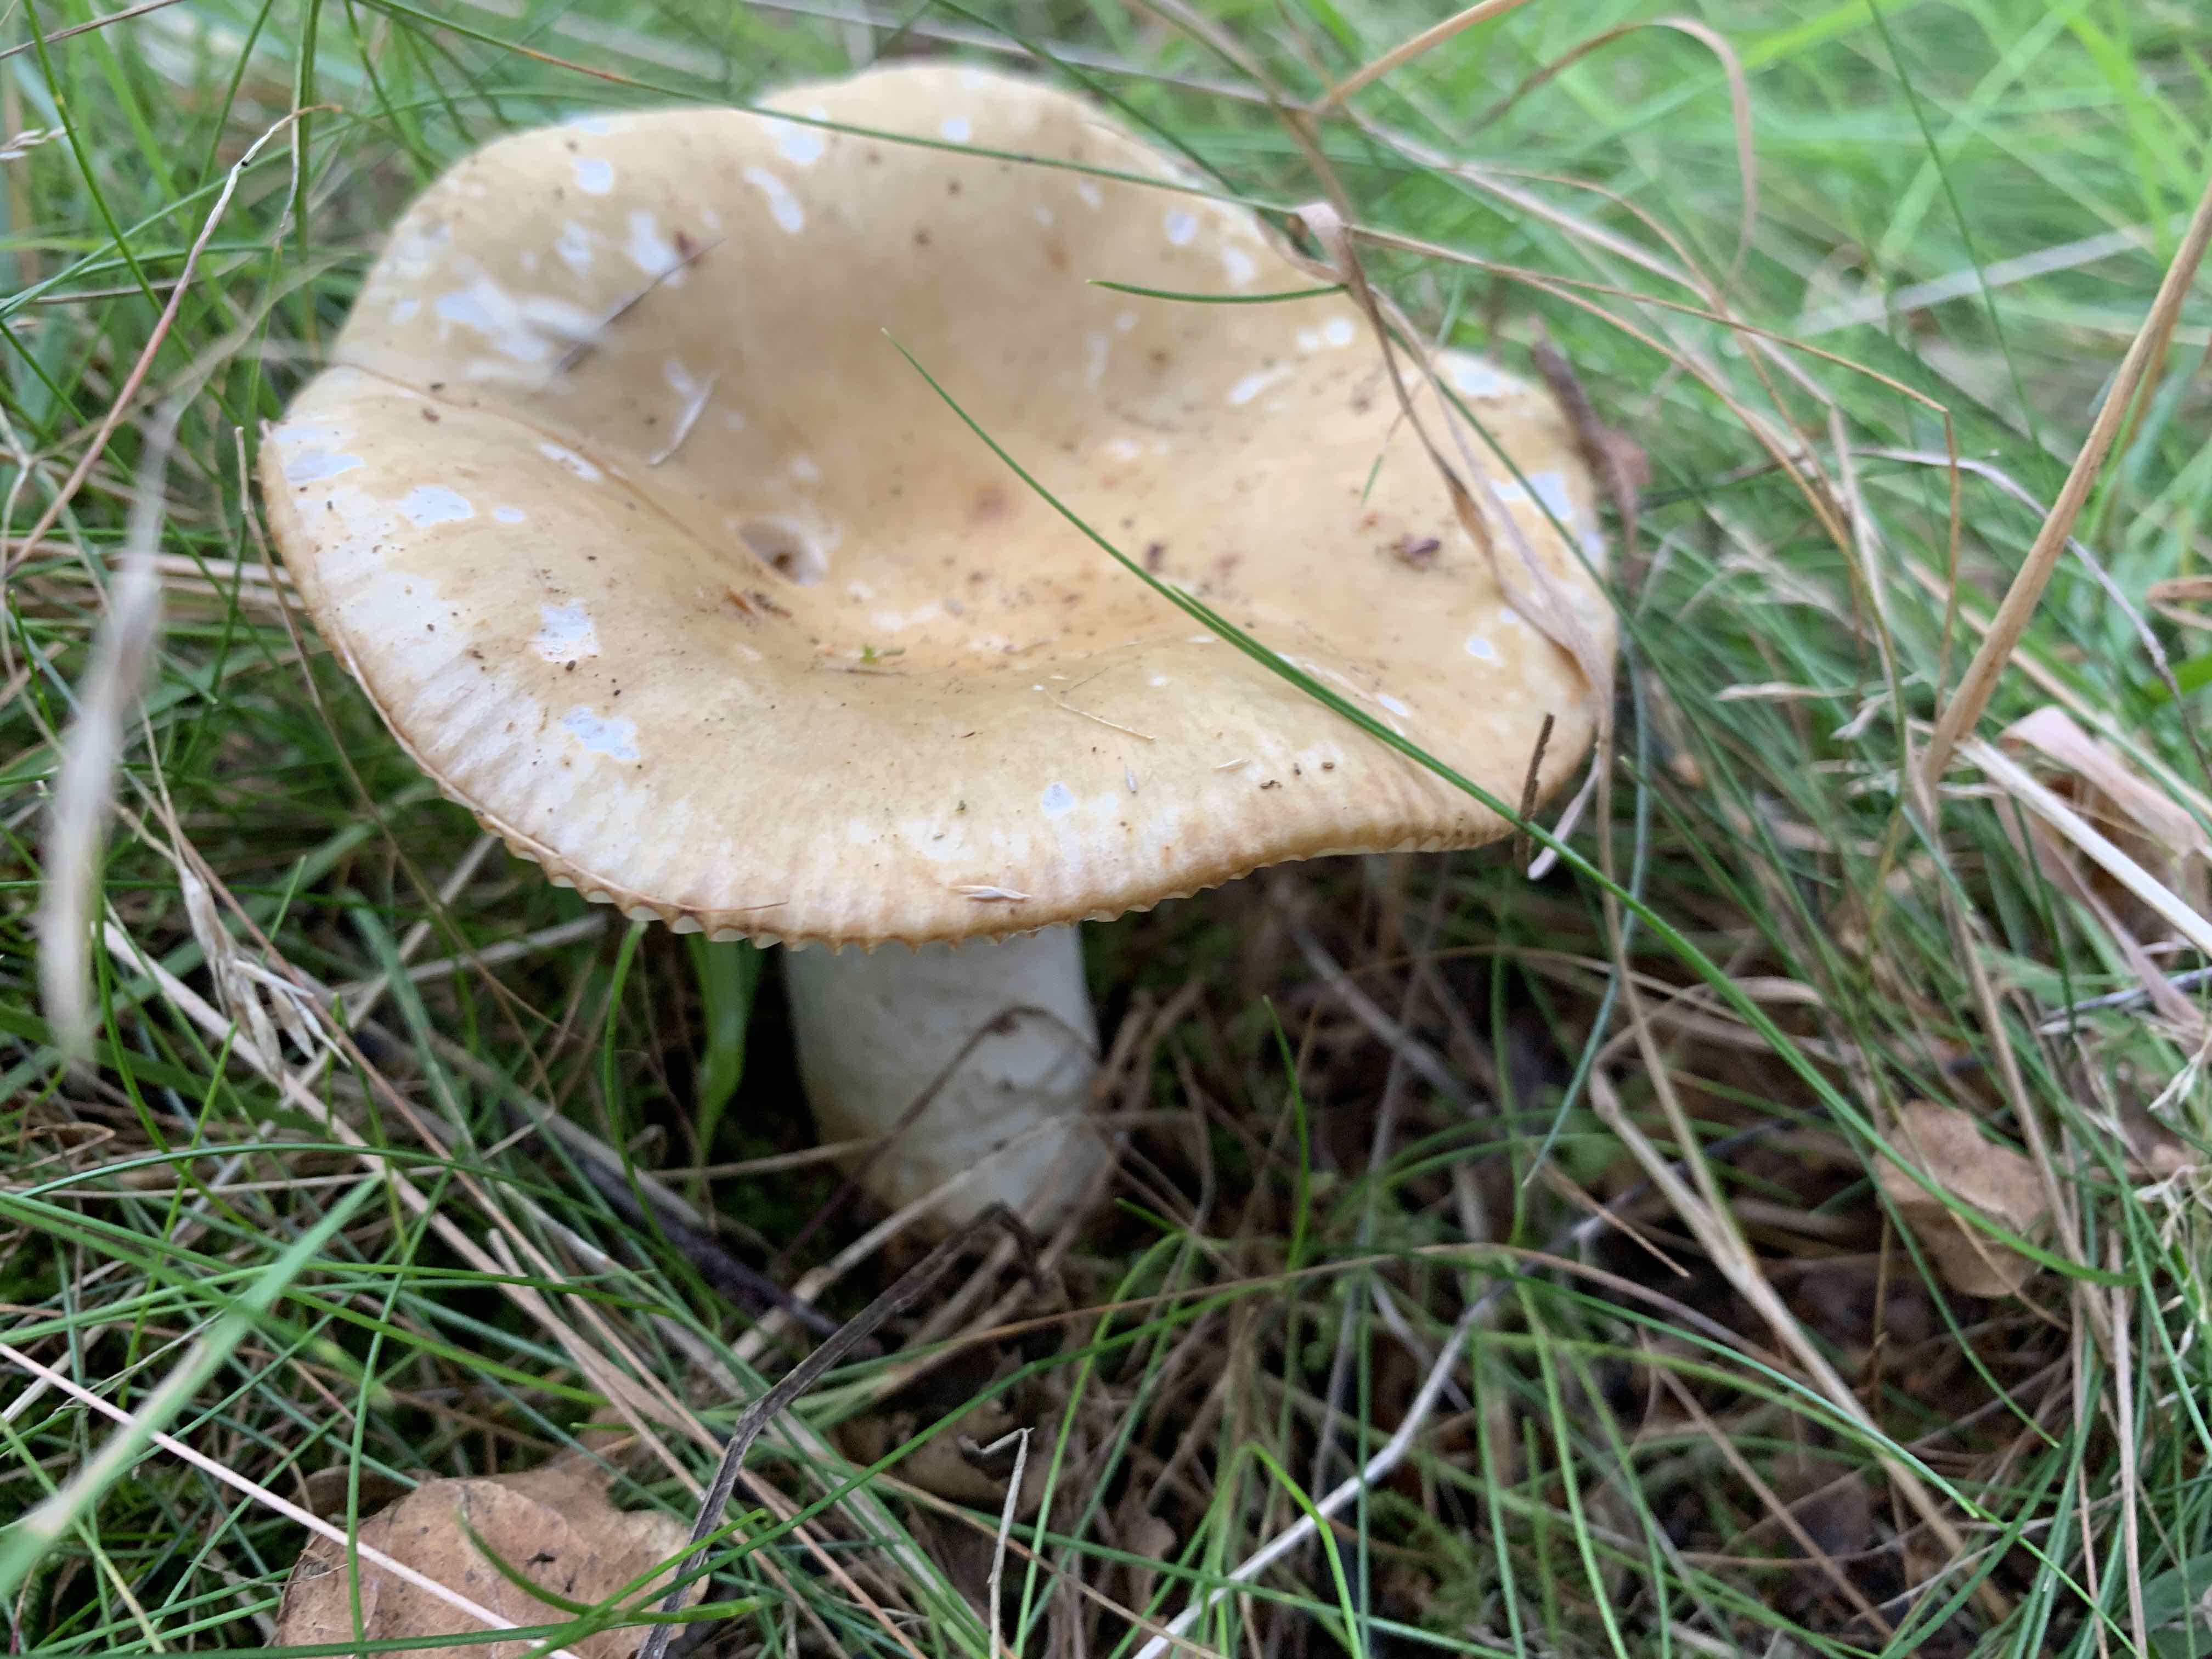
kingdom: Fungi
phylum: Basidiomycota
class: Agaricomycetes
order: Russulales
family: Russulaceae
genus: Russula
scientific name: Russula ochroleuca
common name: okkergul skørhat
